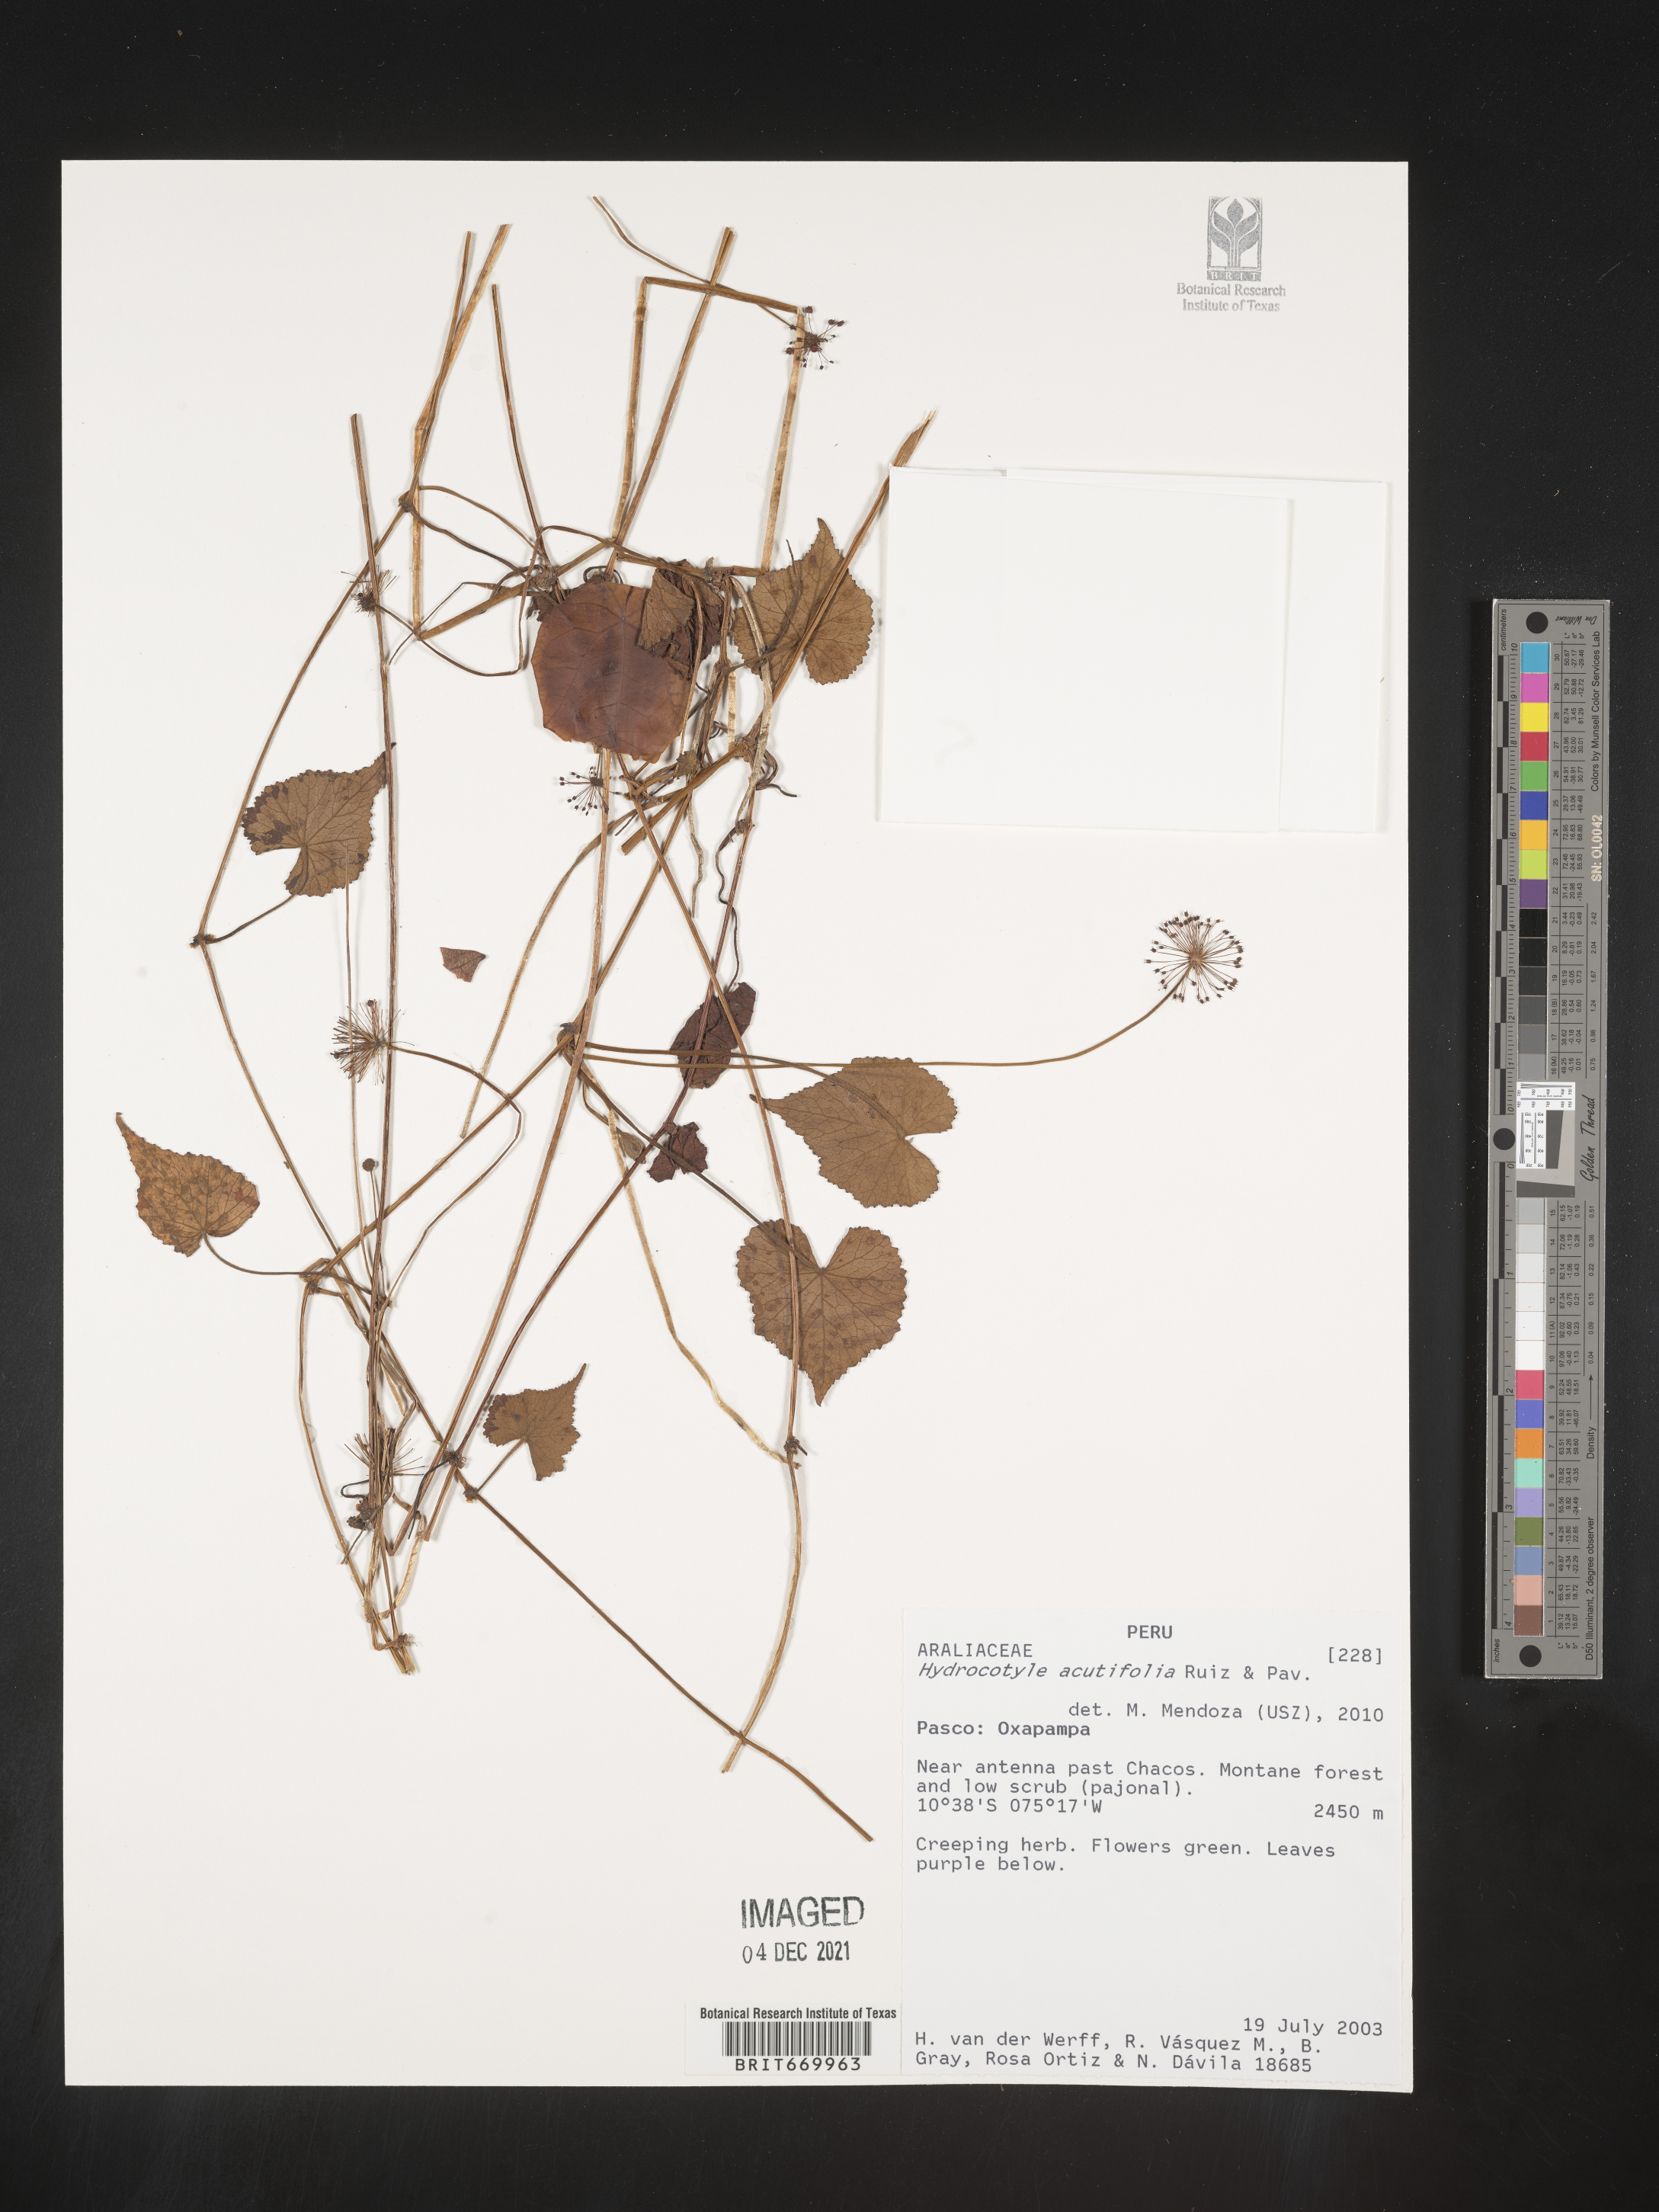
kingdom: Plantae
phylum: Tracheophyta
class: Magnoliopsida
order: Apiales
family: Araliaceae
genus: Hydrocotyle
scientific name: Hydrocotyle
